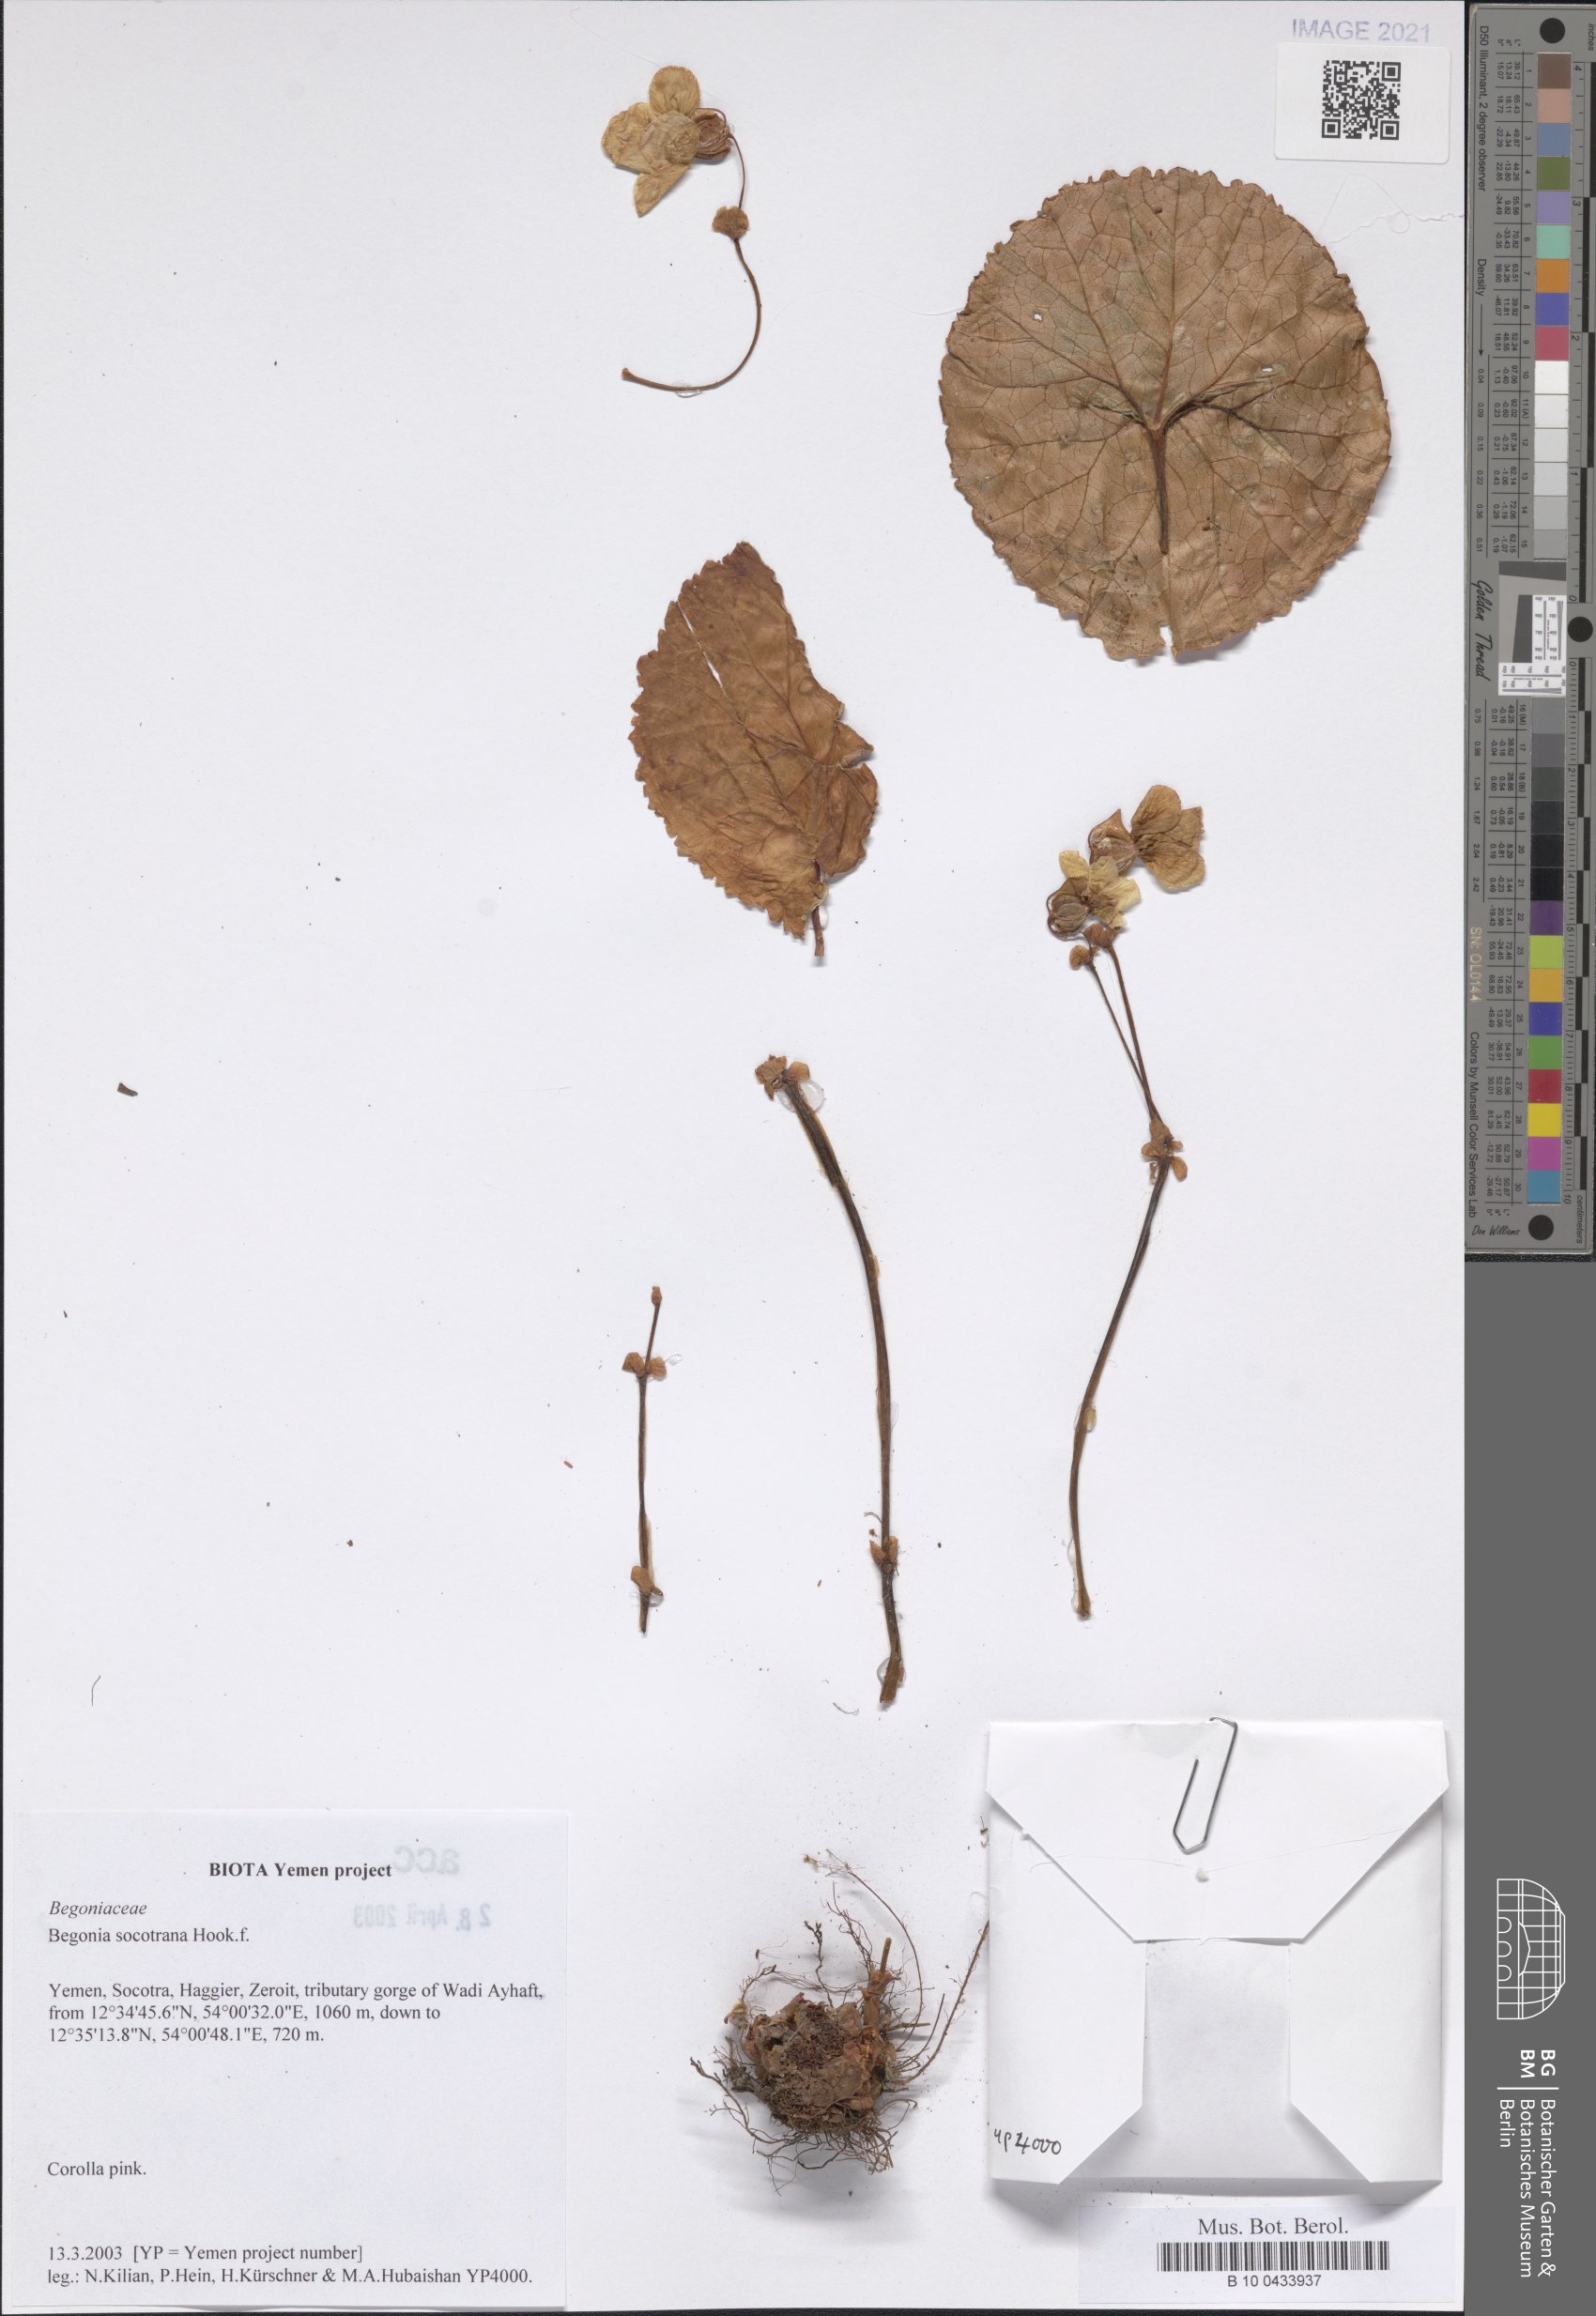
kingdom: Plantae
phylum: Tracheophyta
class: Magnoliopsida
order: Cucurbitales
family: Begoniaceae
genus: Begonia
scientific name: Begonia socotrana
